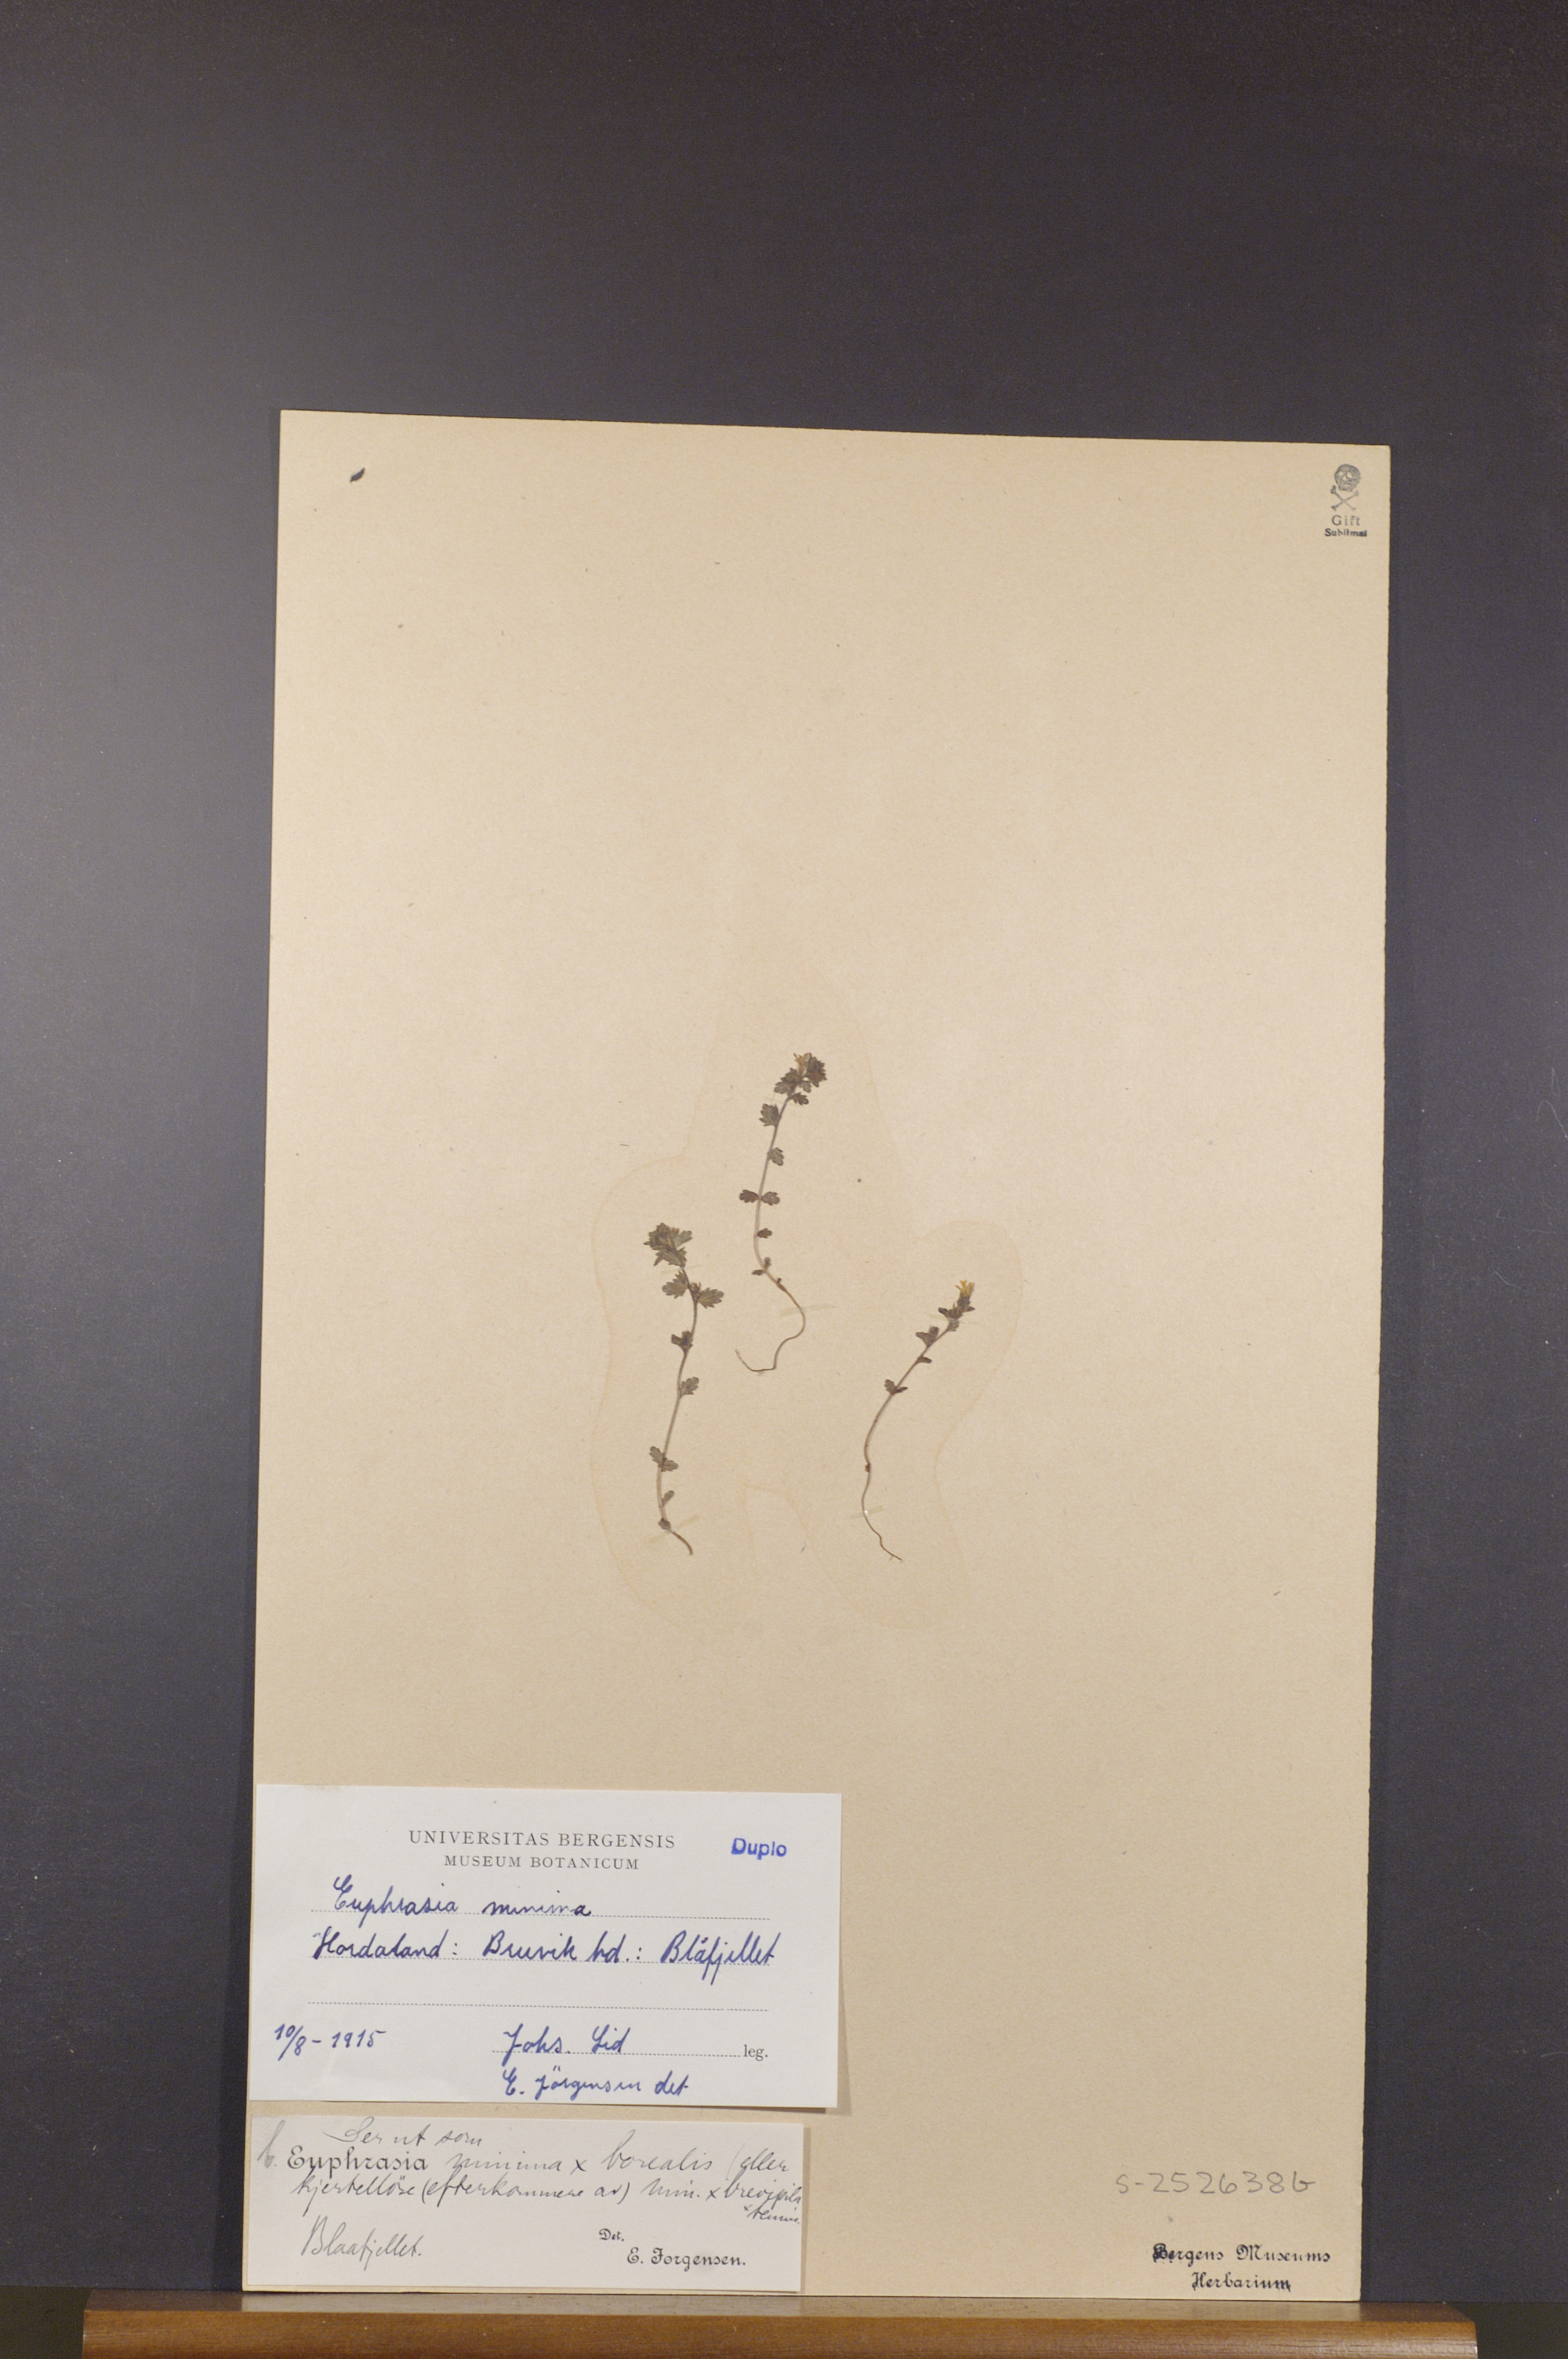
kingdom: Plantae
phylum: Tracheophyta
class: Magnoliopsida
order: Lamiales
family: Orobanchaceae
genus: Euphrasia
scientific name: Euphrasia minima
